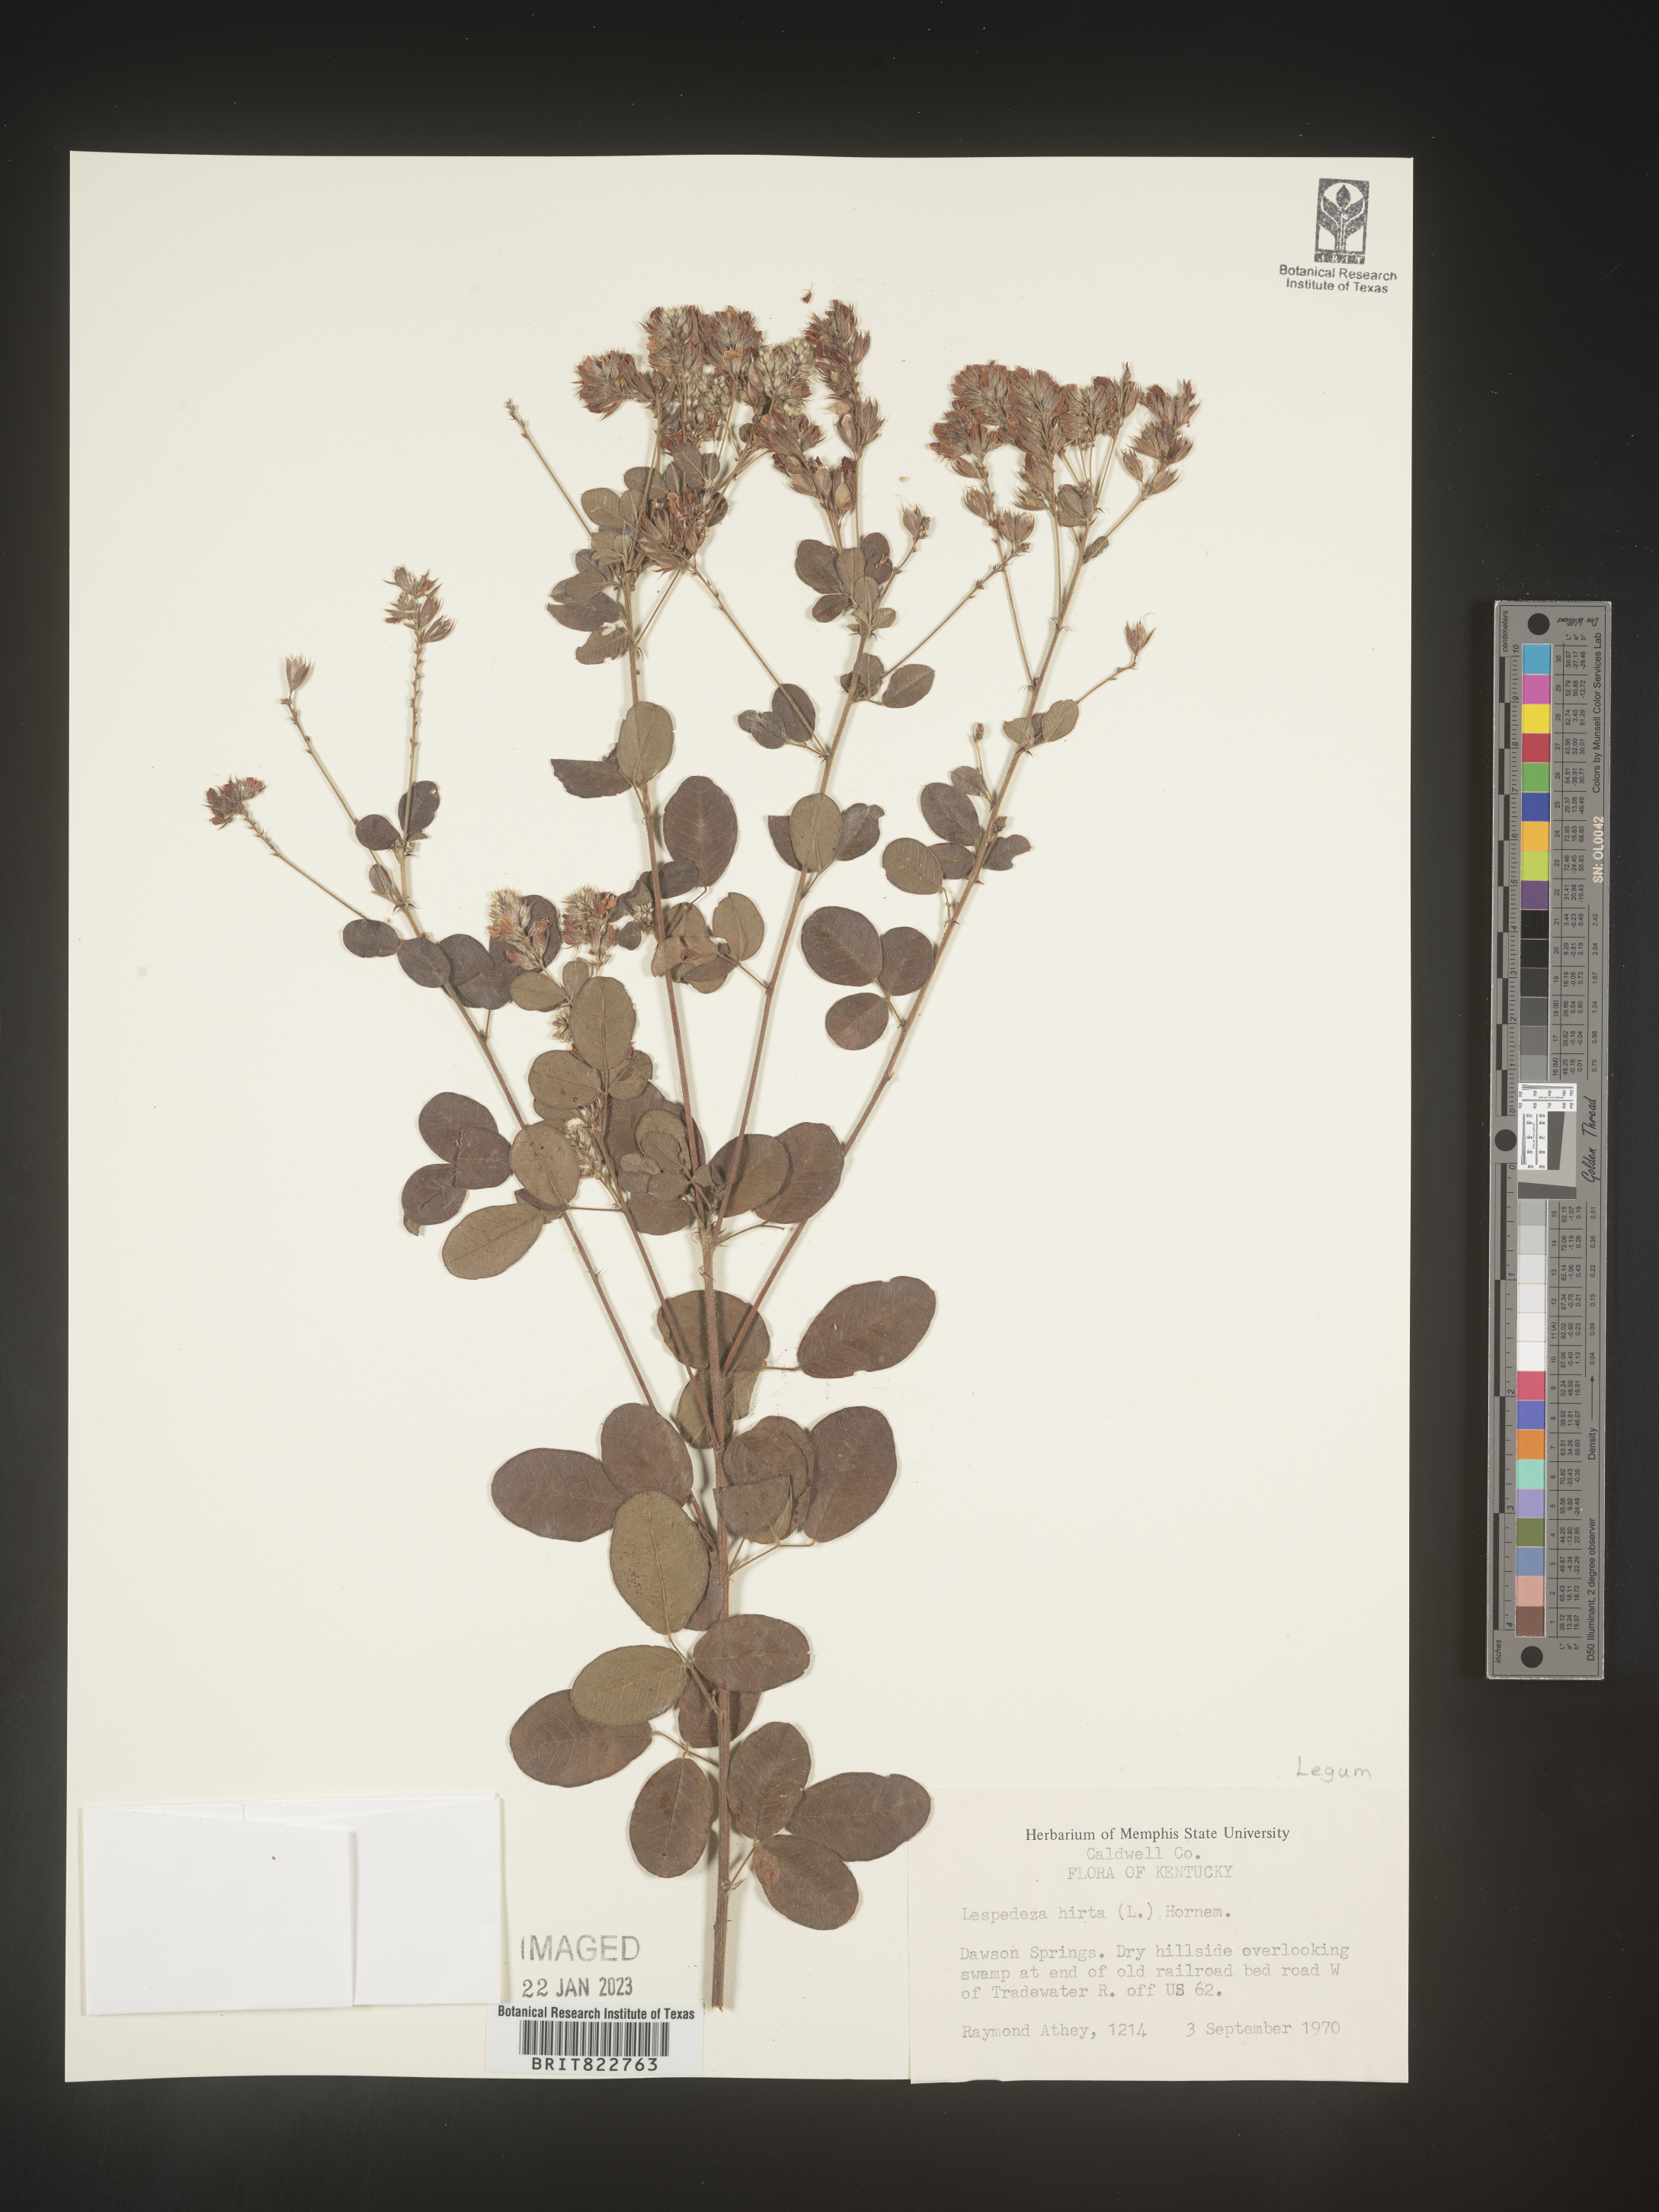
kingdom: Plantae
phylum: Tracheophyta
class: Magnoliopsida
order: Fabales
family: Fabaceae
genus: Lespedeza
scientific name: Lespedeza hirta
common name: Hairy lespedeza
